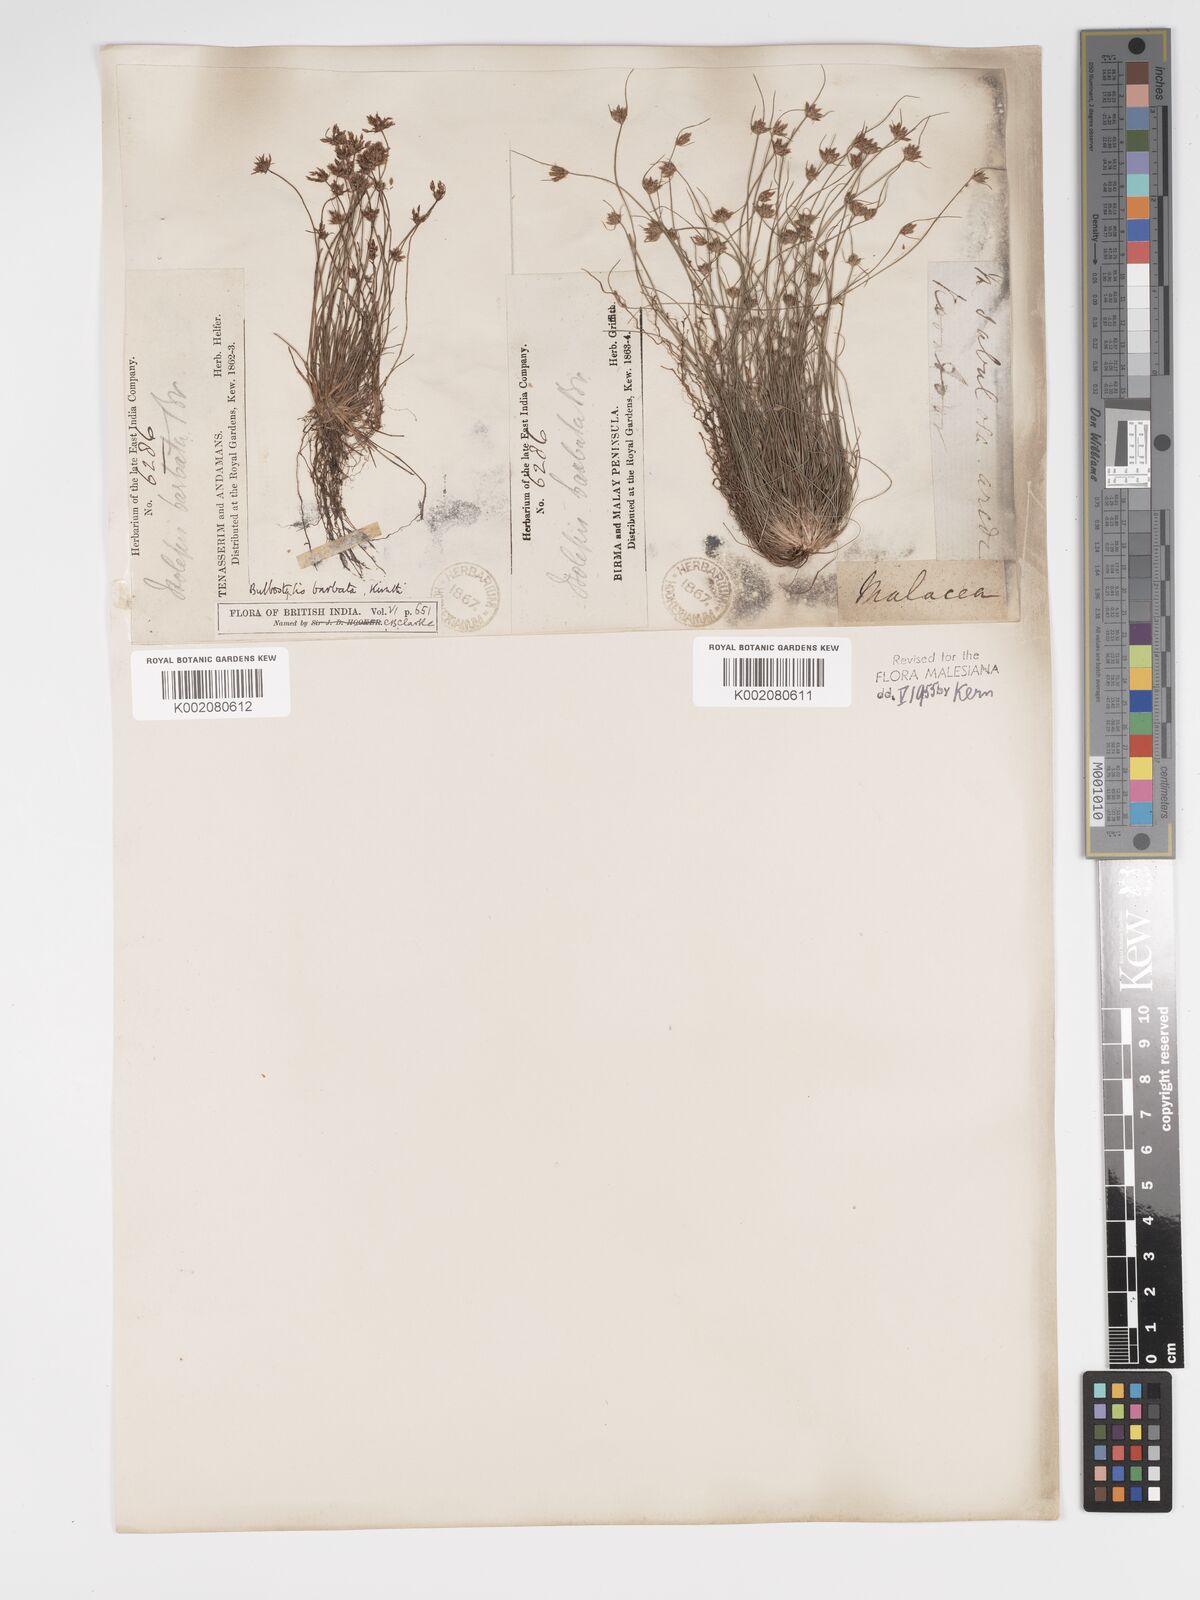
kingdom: Plantae
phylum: Tracheophyta
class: Liliopsida
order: Poales
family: Cyperaceae
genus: Bulbostylis
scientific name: Bulbostylis barbata
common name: Watergrass
